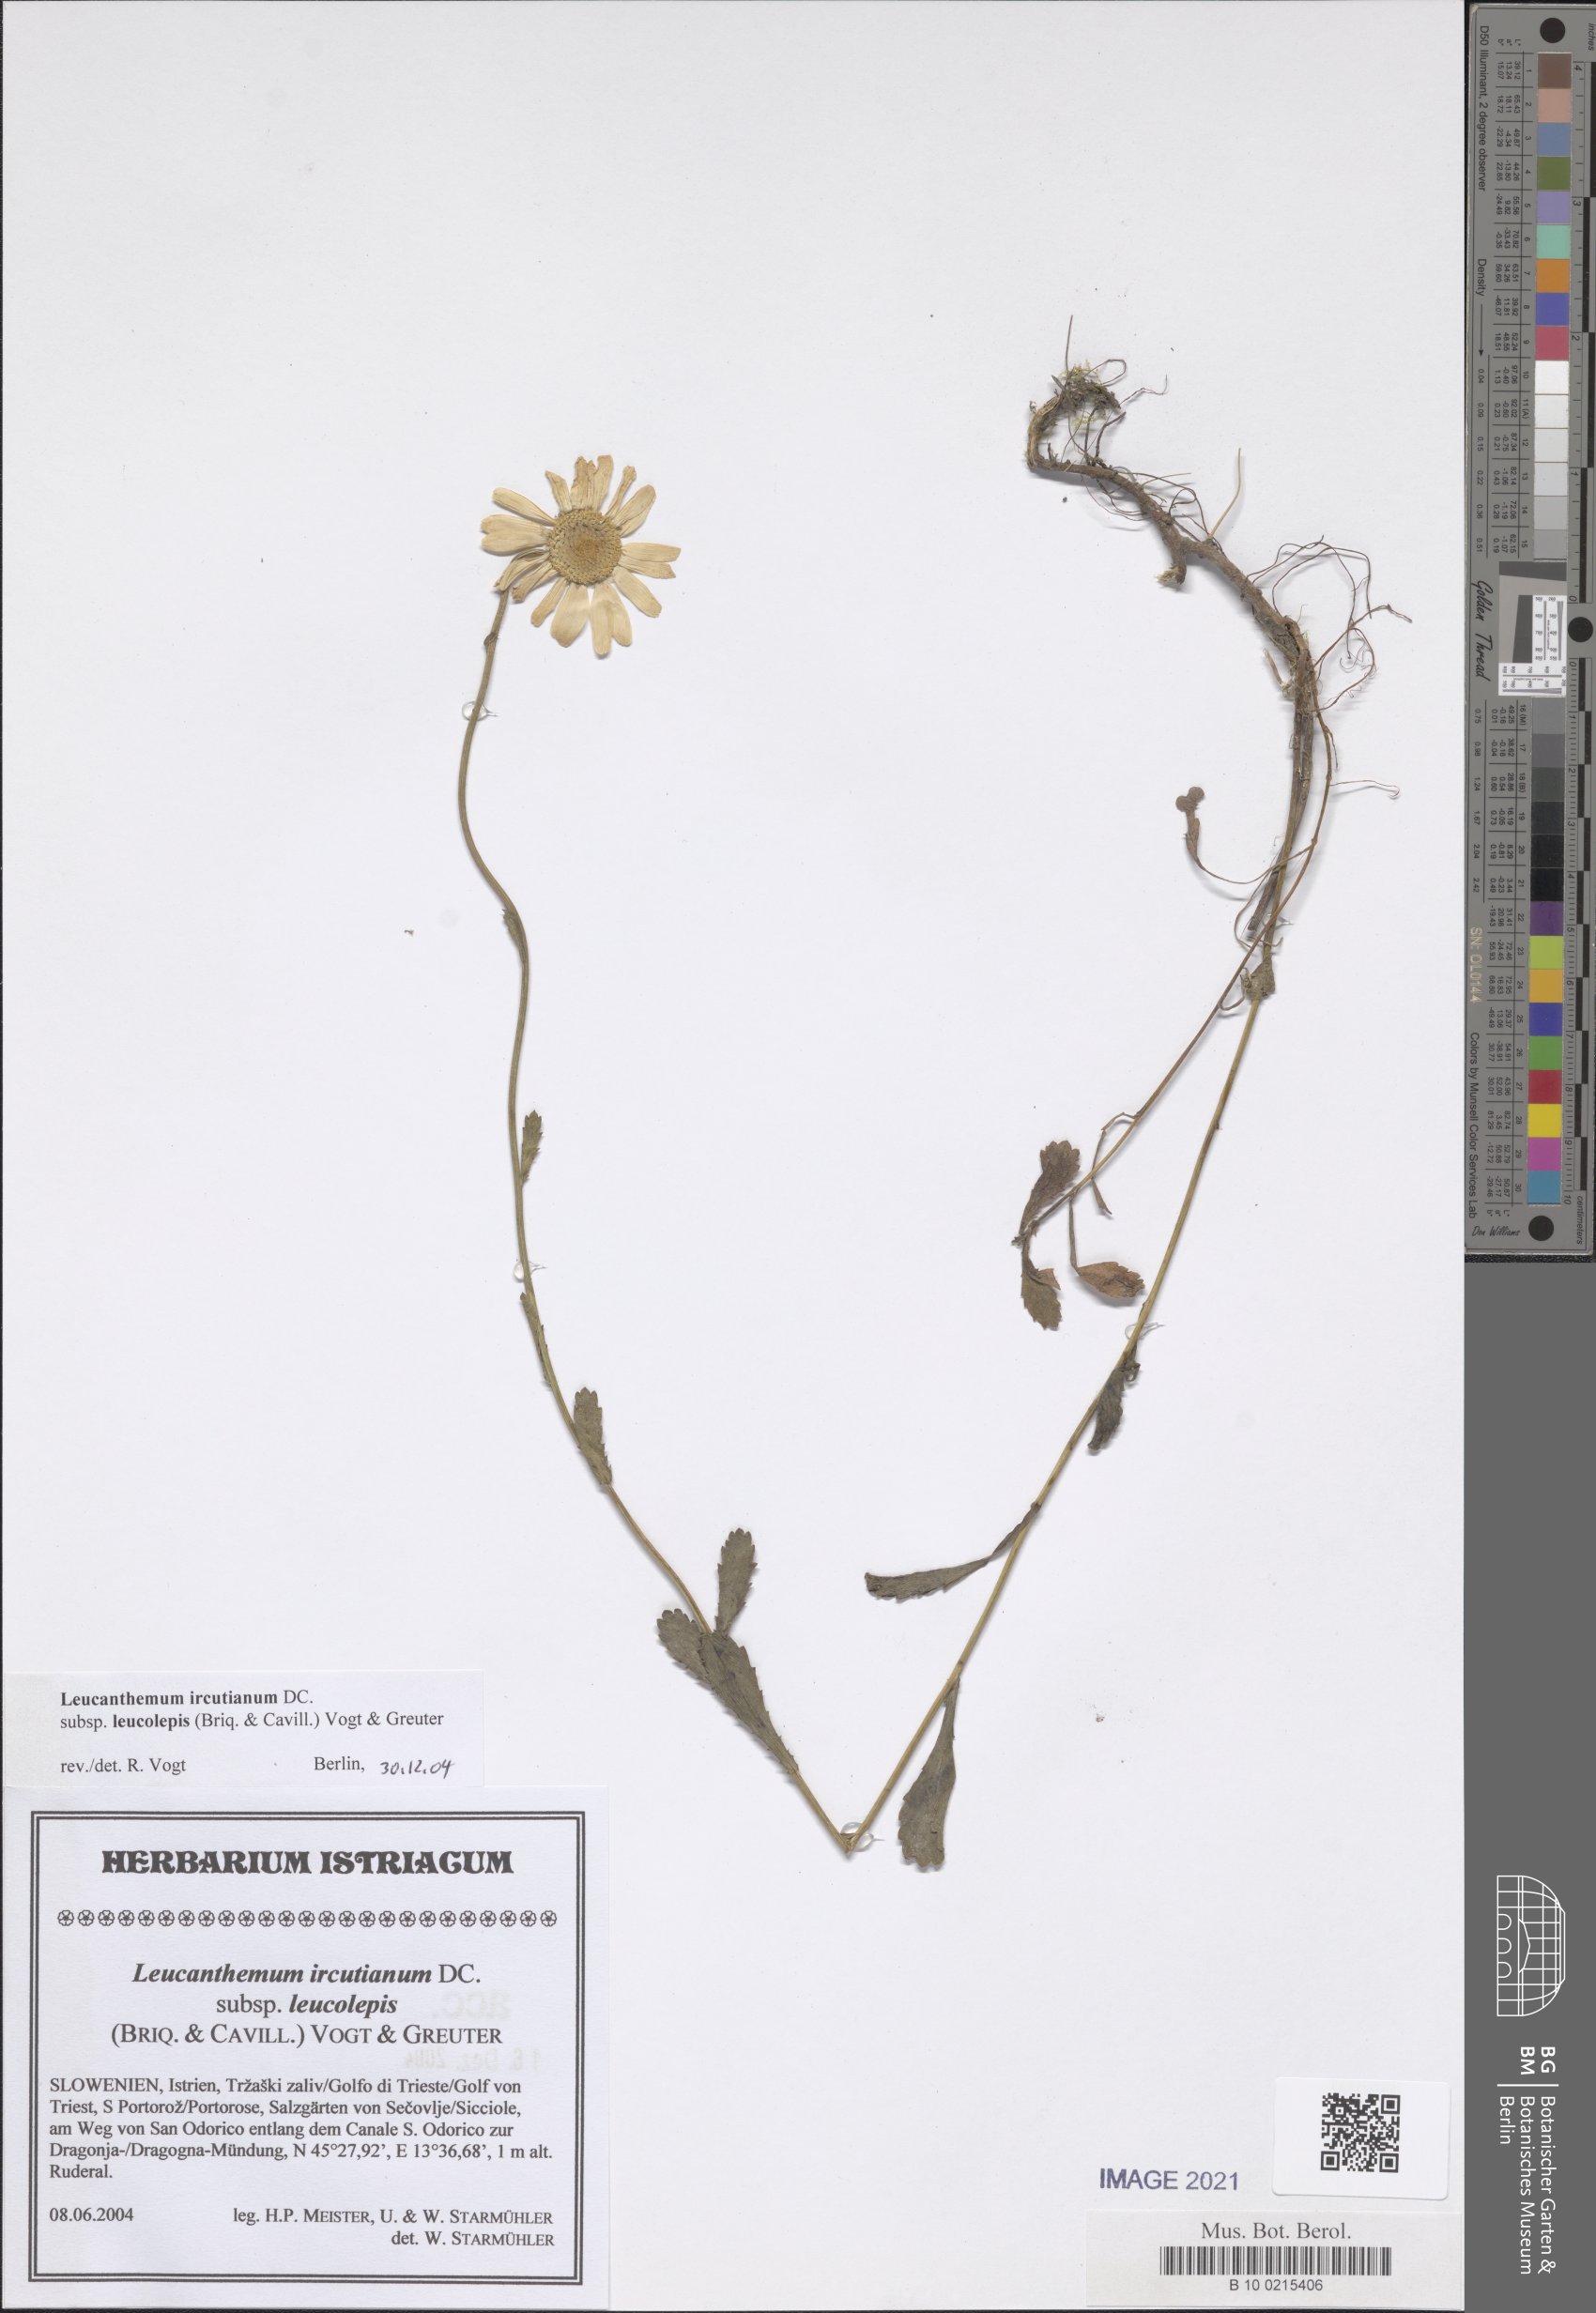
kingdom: Plantae
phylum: Tracheophyta
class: Magnoliopsida
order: Asterales
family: Asteraceae
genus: Leucanthemum
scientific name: Leucanthemum ircutianum
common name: Daisy
